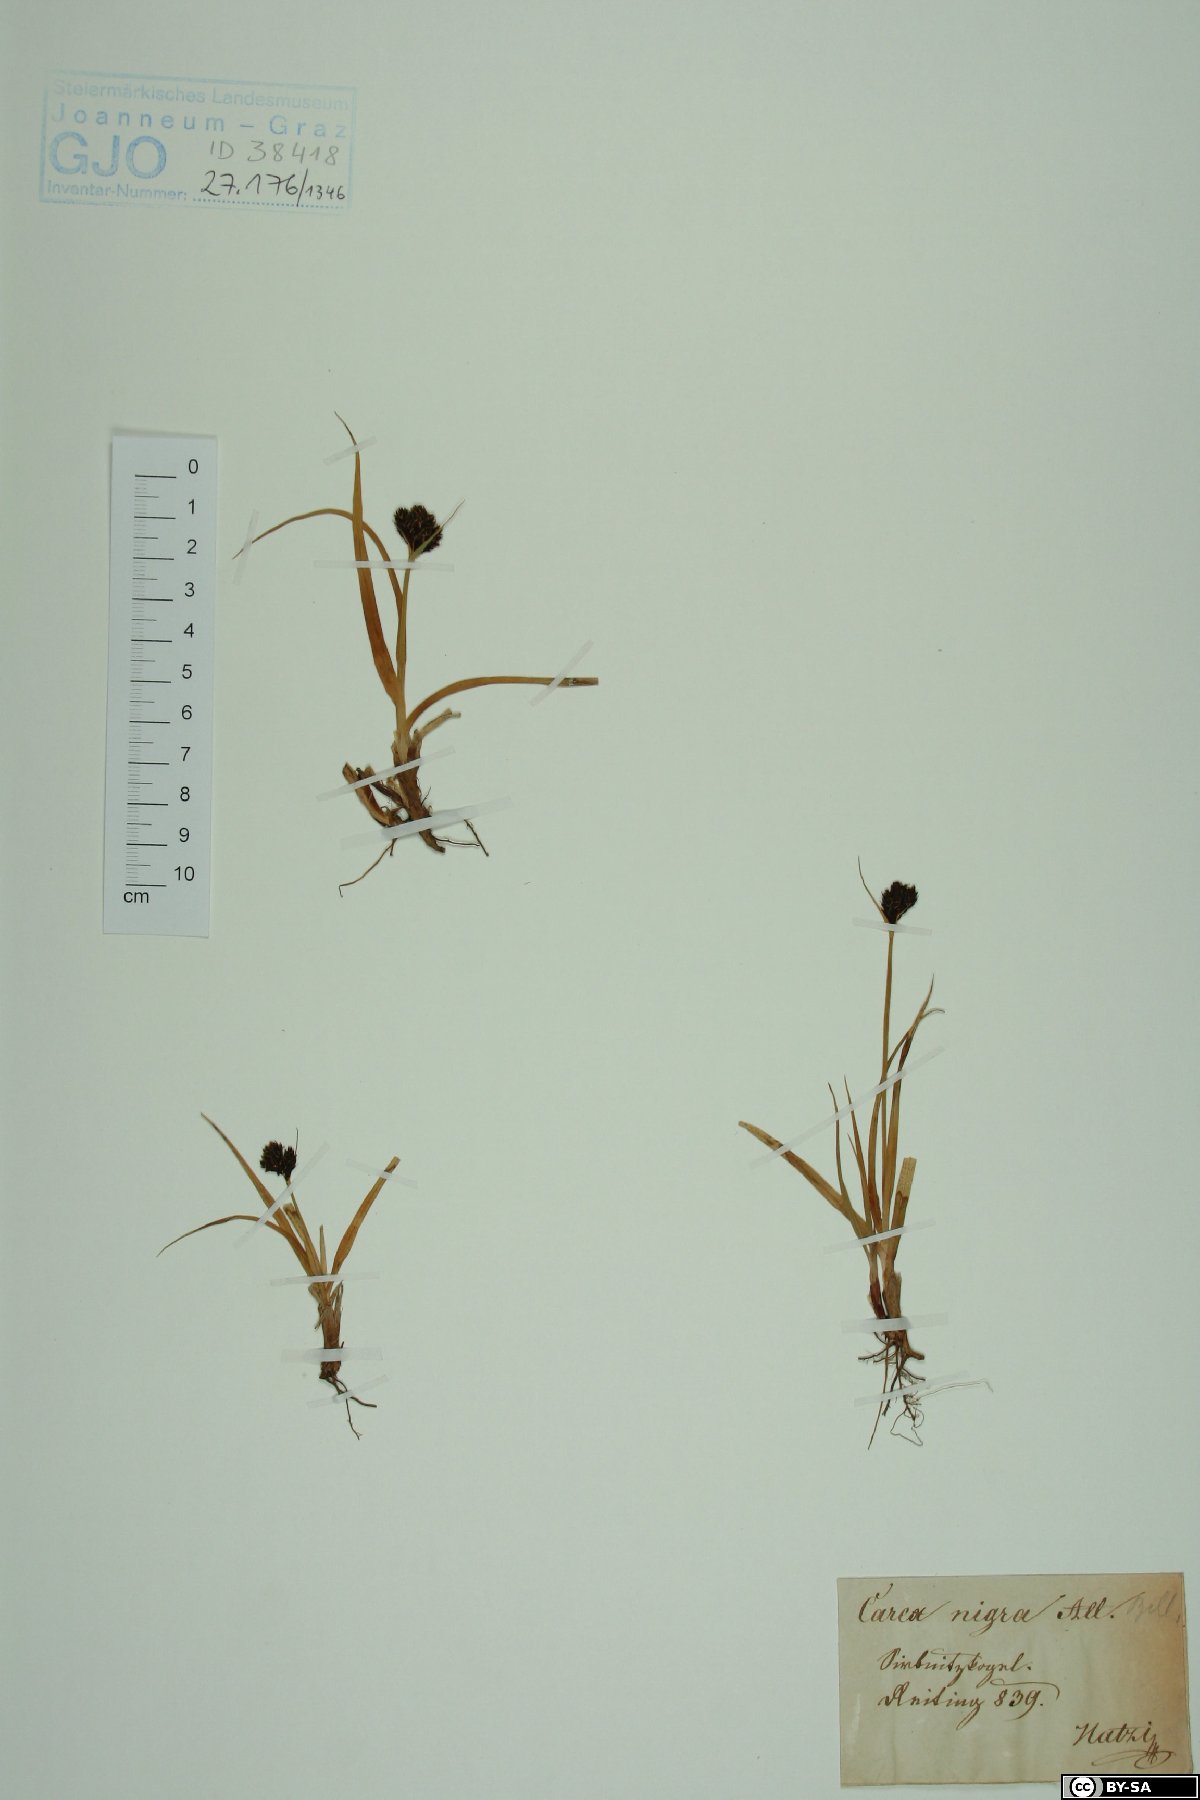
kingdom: Plantae
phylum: Tracheophyta
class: Liliopsida
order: Poales
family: Cyperaceae
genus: Carex
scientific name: Carex nigra
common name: Common sedge
